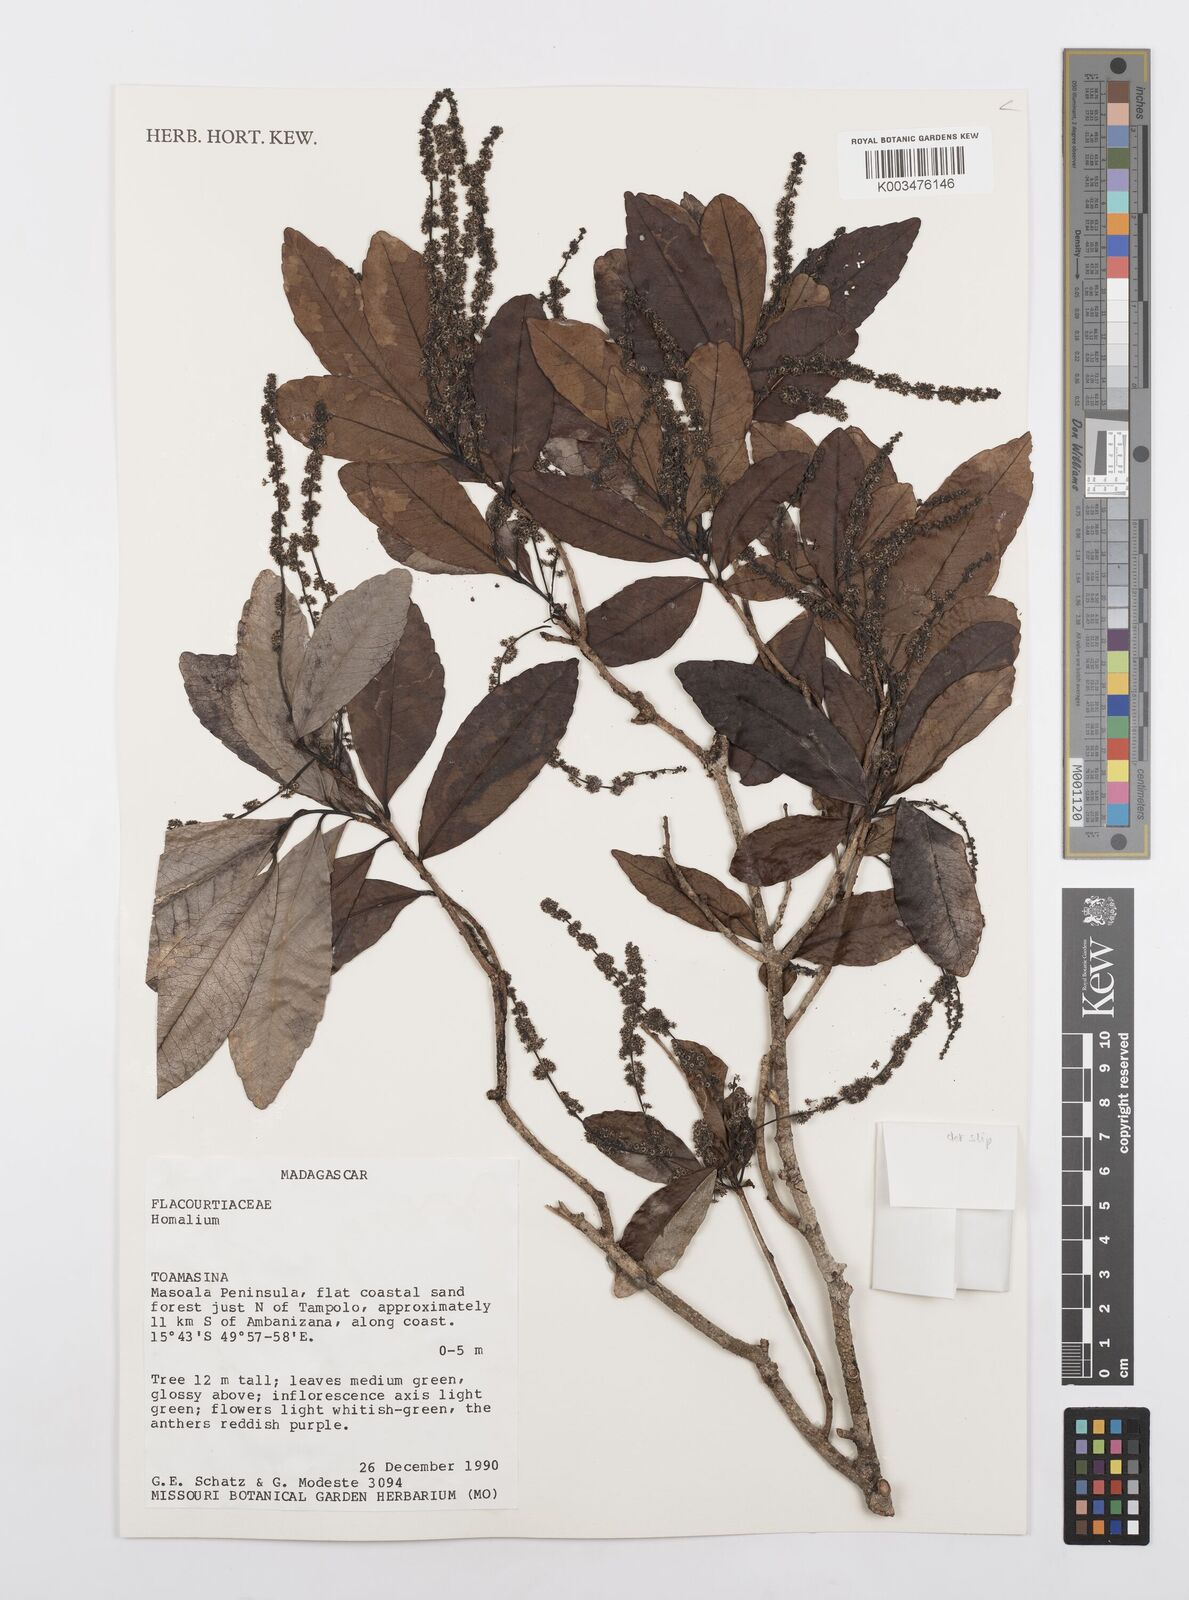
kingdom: Plantae
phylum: Tracheophyta
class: Magnoliopsida
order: Malpighiales
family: Salicaceae
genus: Homalium
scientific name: Homalium
